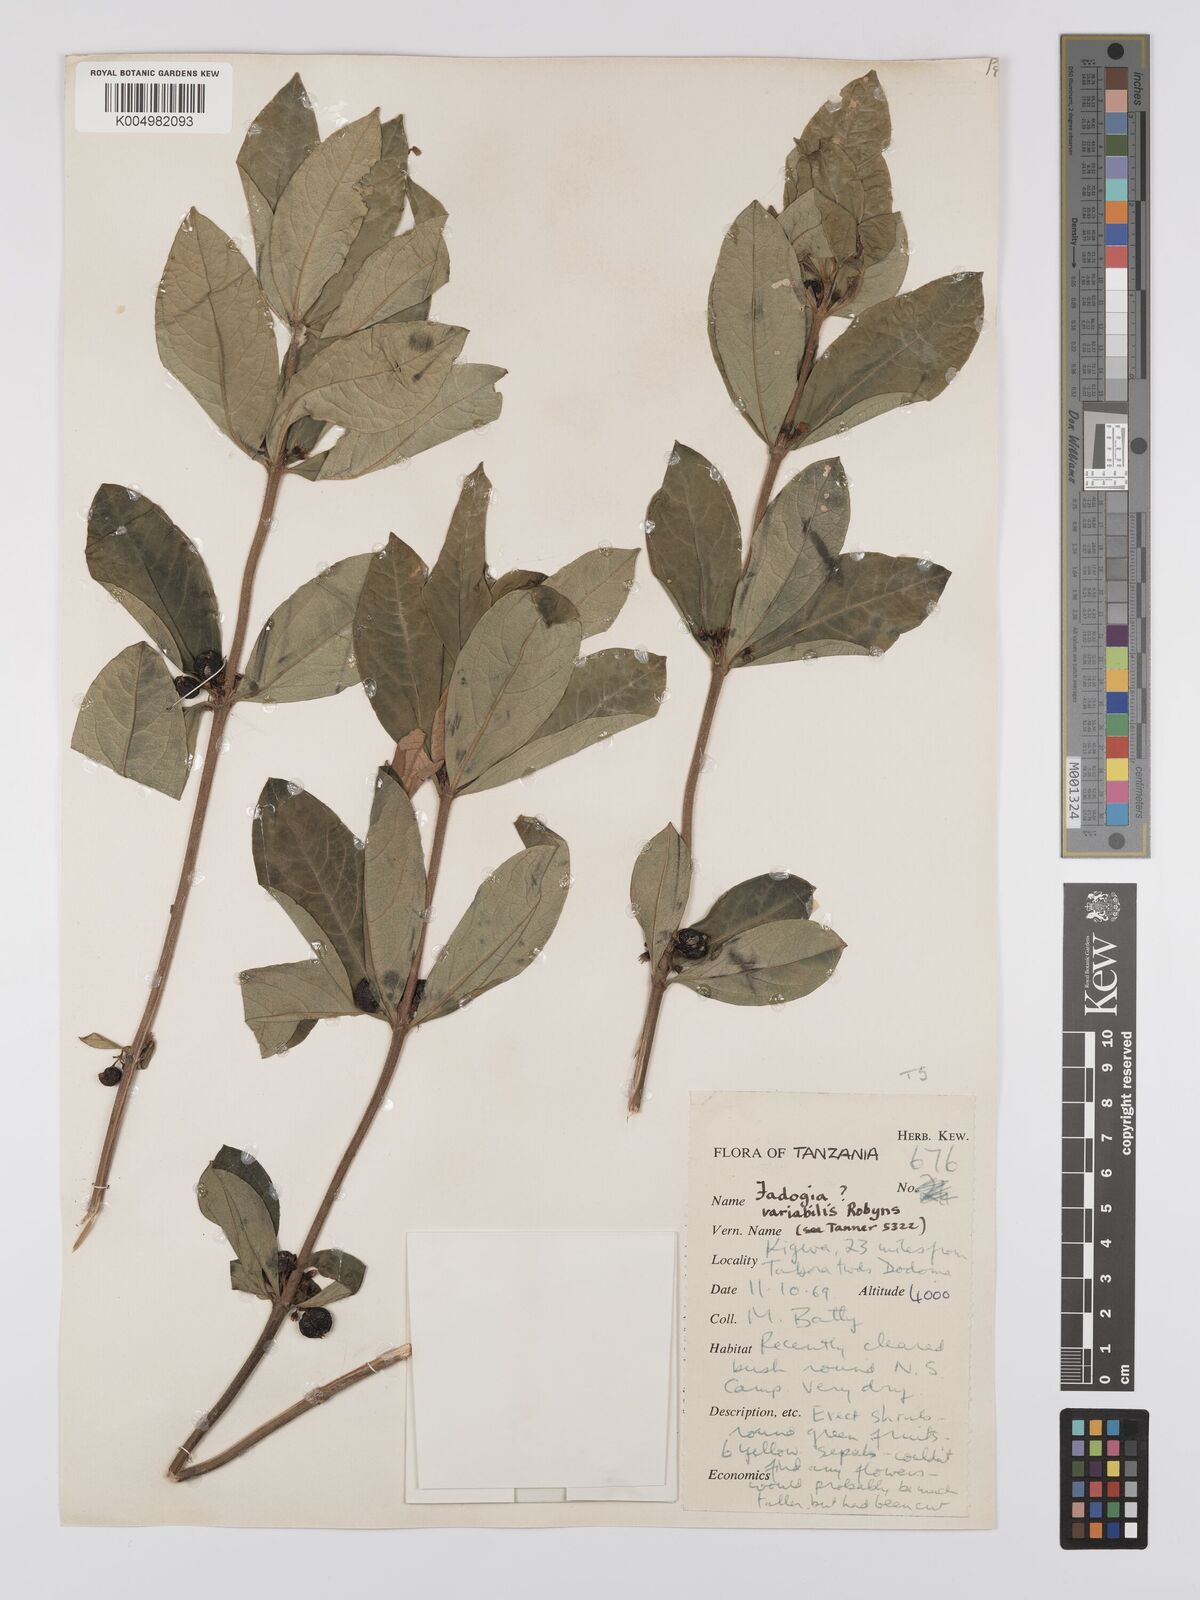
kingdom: Plantae
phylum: Tracheophyta
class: Magnoliopsida
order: Gentianales
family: Rubiaceae
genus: Fadogia
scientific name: Fadogia tetraquetra
